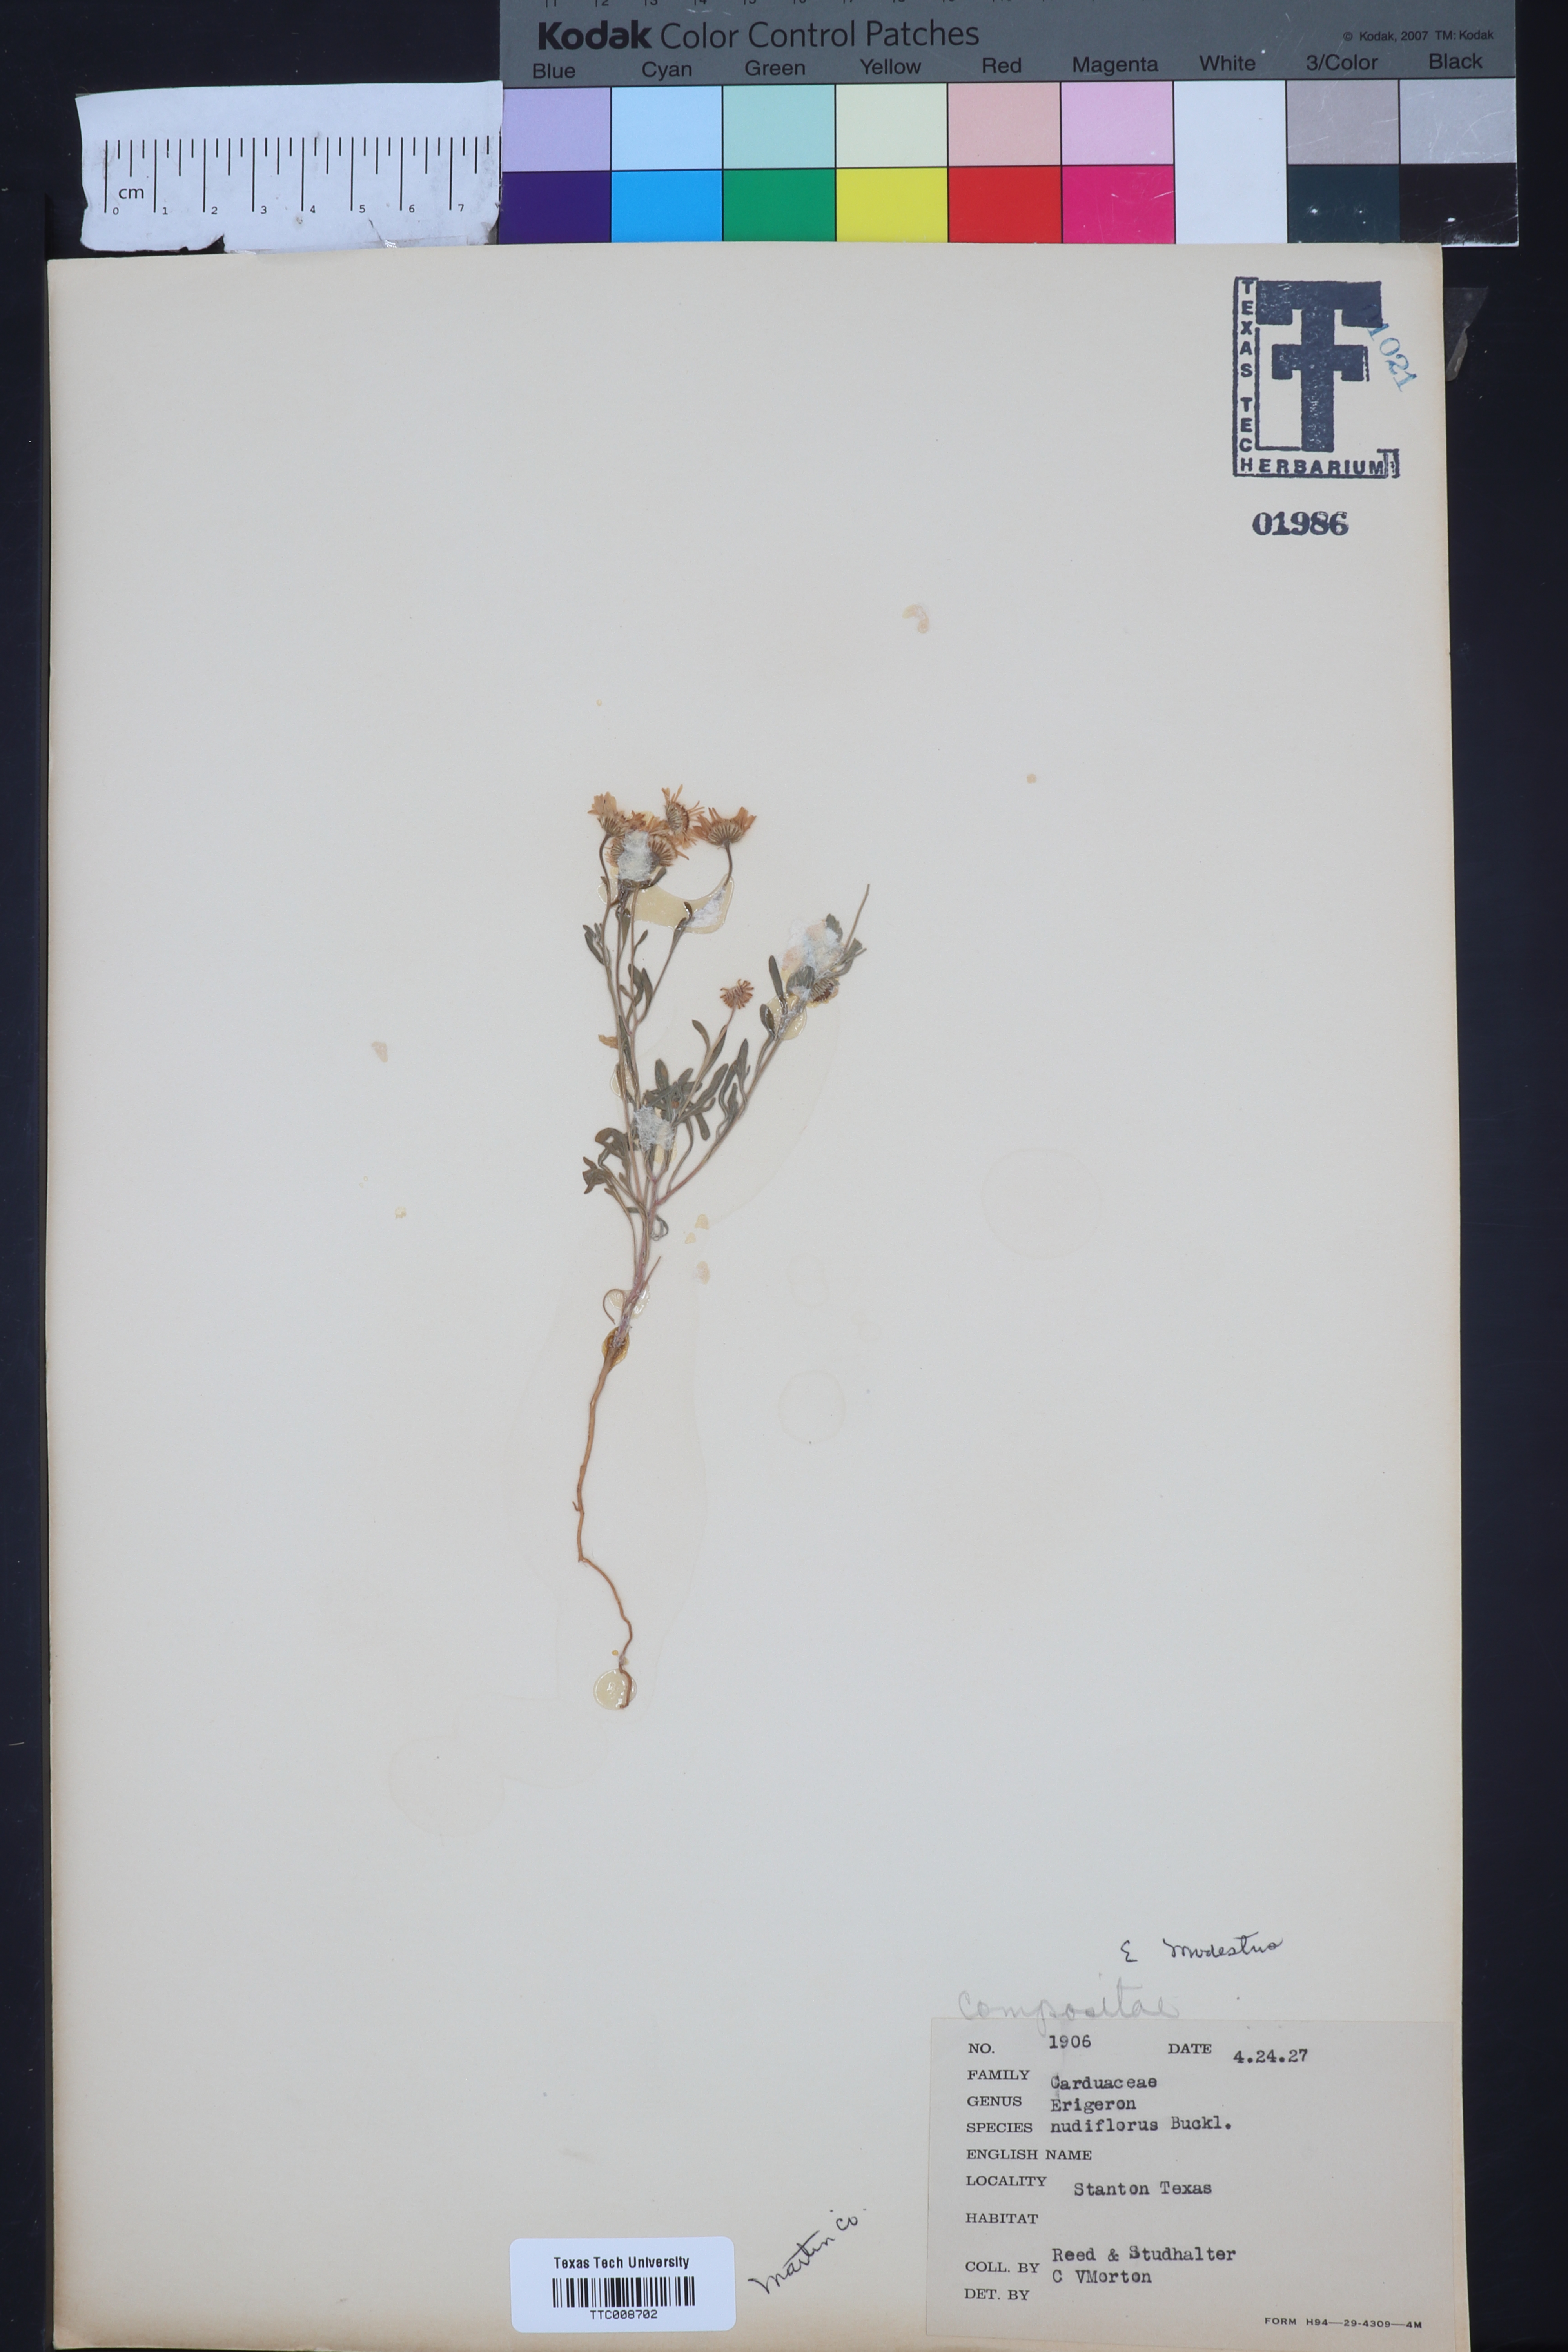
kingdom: Plantae
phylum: Tracheophyta
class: Magnoliopsida
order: Asterales
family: Asteraceae
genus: Erigeron
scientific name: Erigeron modestus
